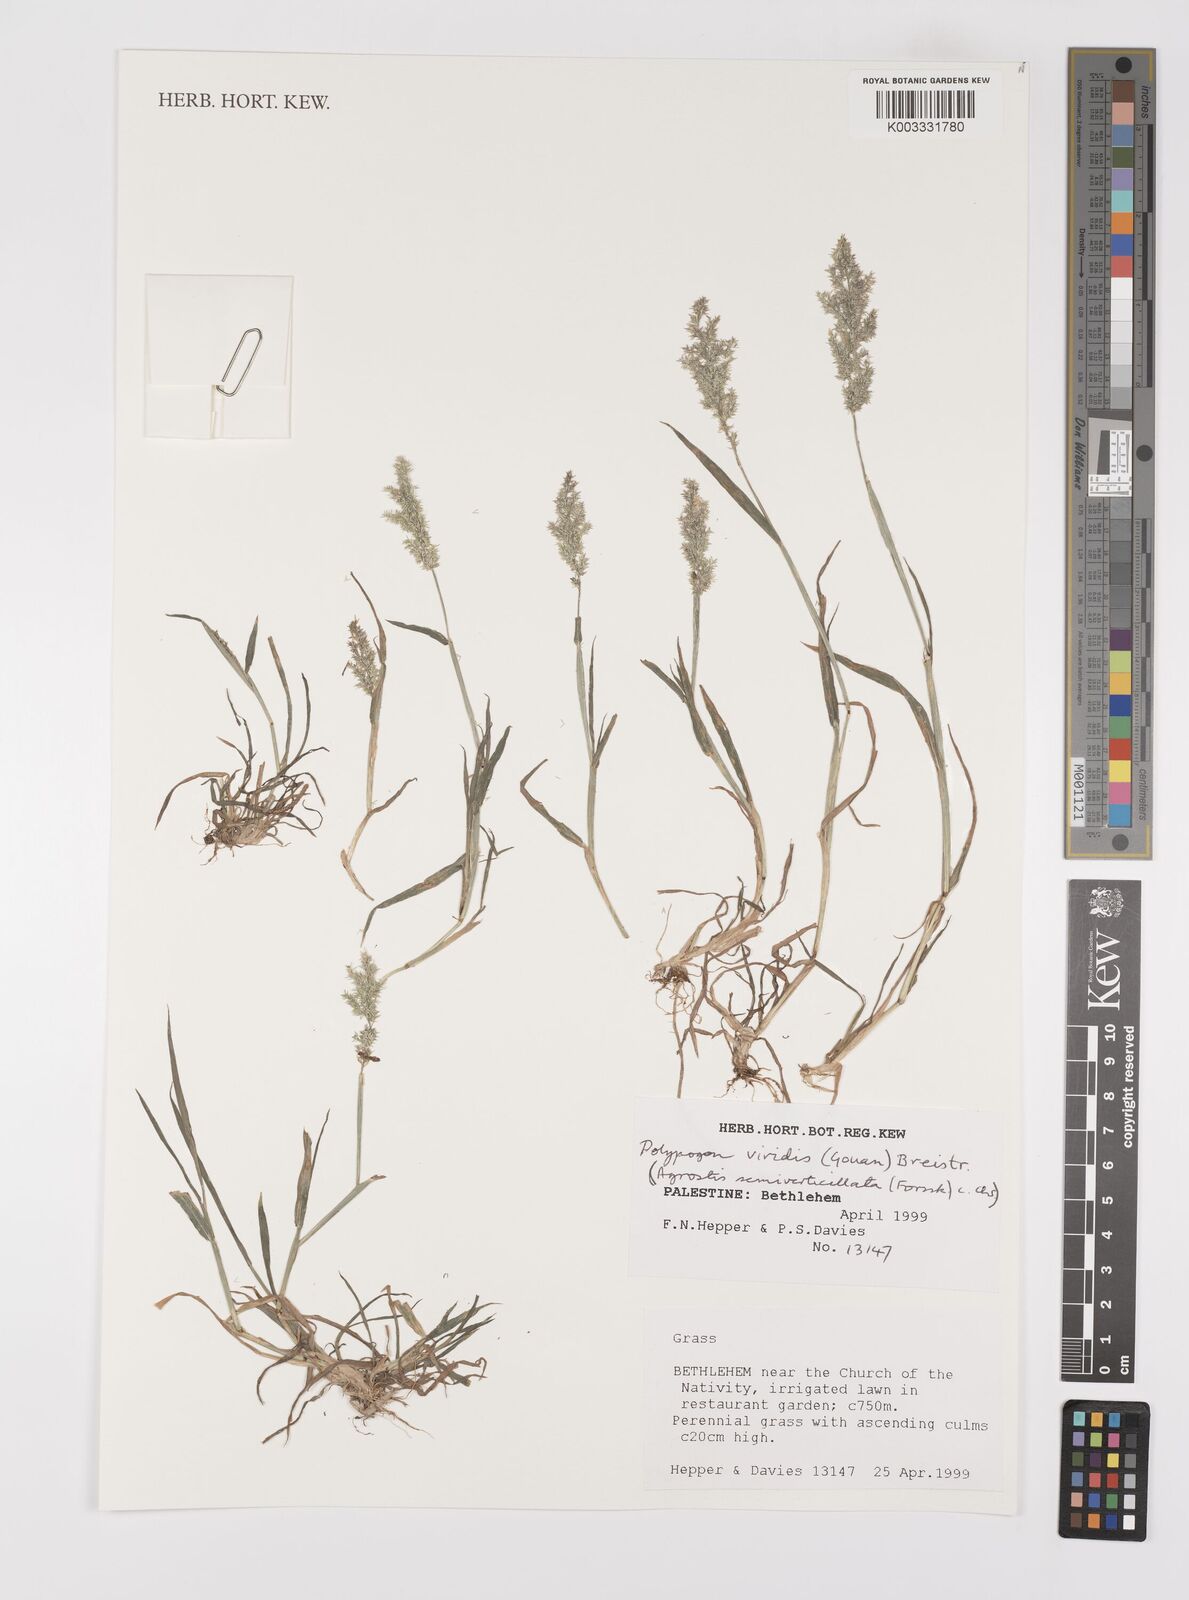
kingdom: Plantae
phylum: Tracheophyta
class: Liliopsida
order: Poales
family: Poaceae
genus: Polypogon
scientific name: Polypogon viridis
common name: Water bent
